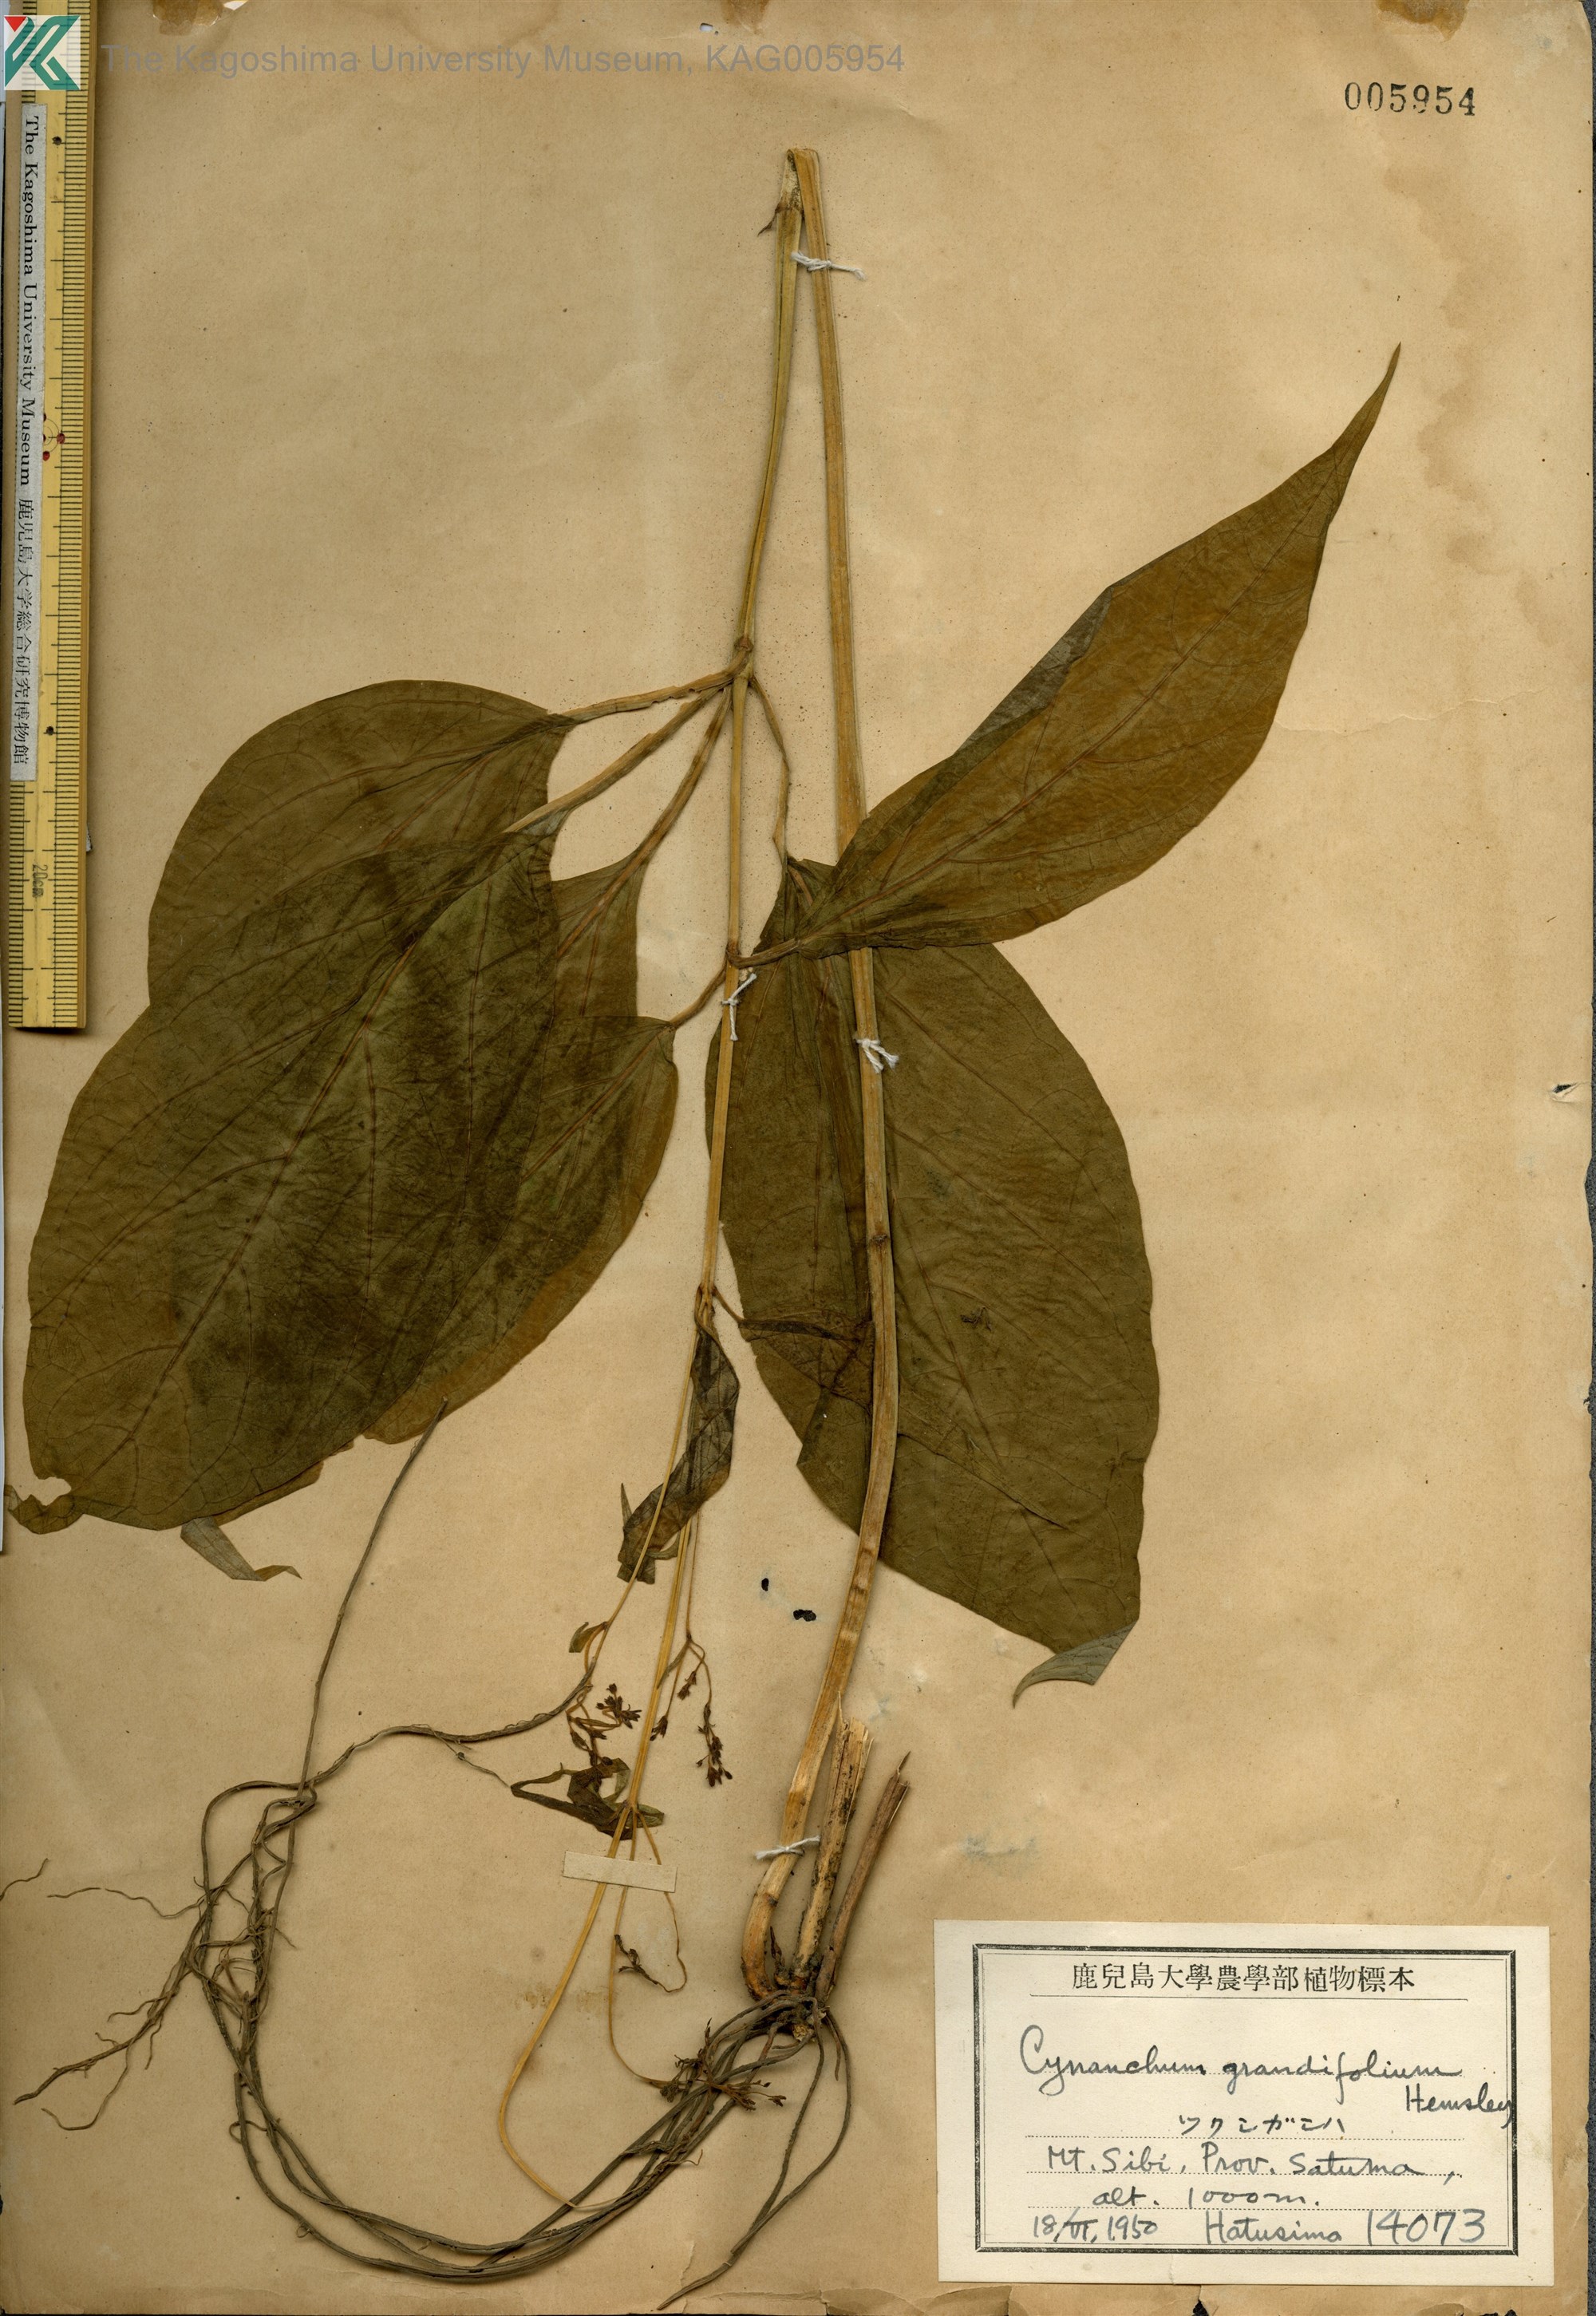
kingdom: Plantae
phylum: Tracheophyta
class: Magnoliopsida
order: Gentianales
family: Apocynaceae
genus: Vincetoxicum
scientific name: Vincetoxicum macrophyllum
